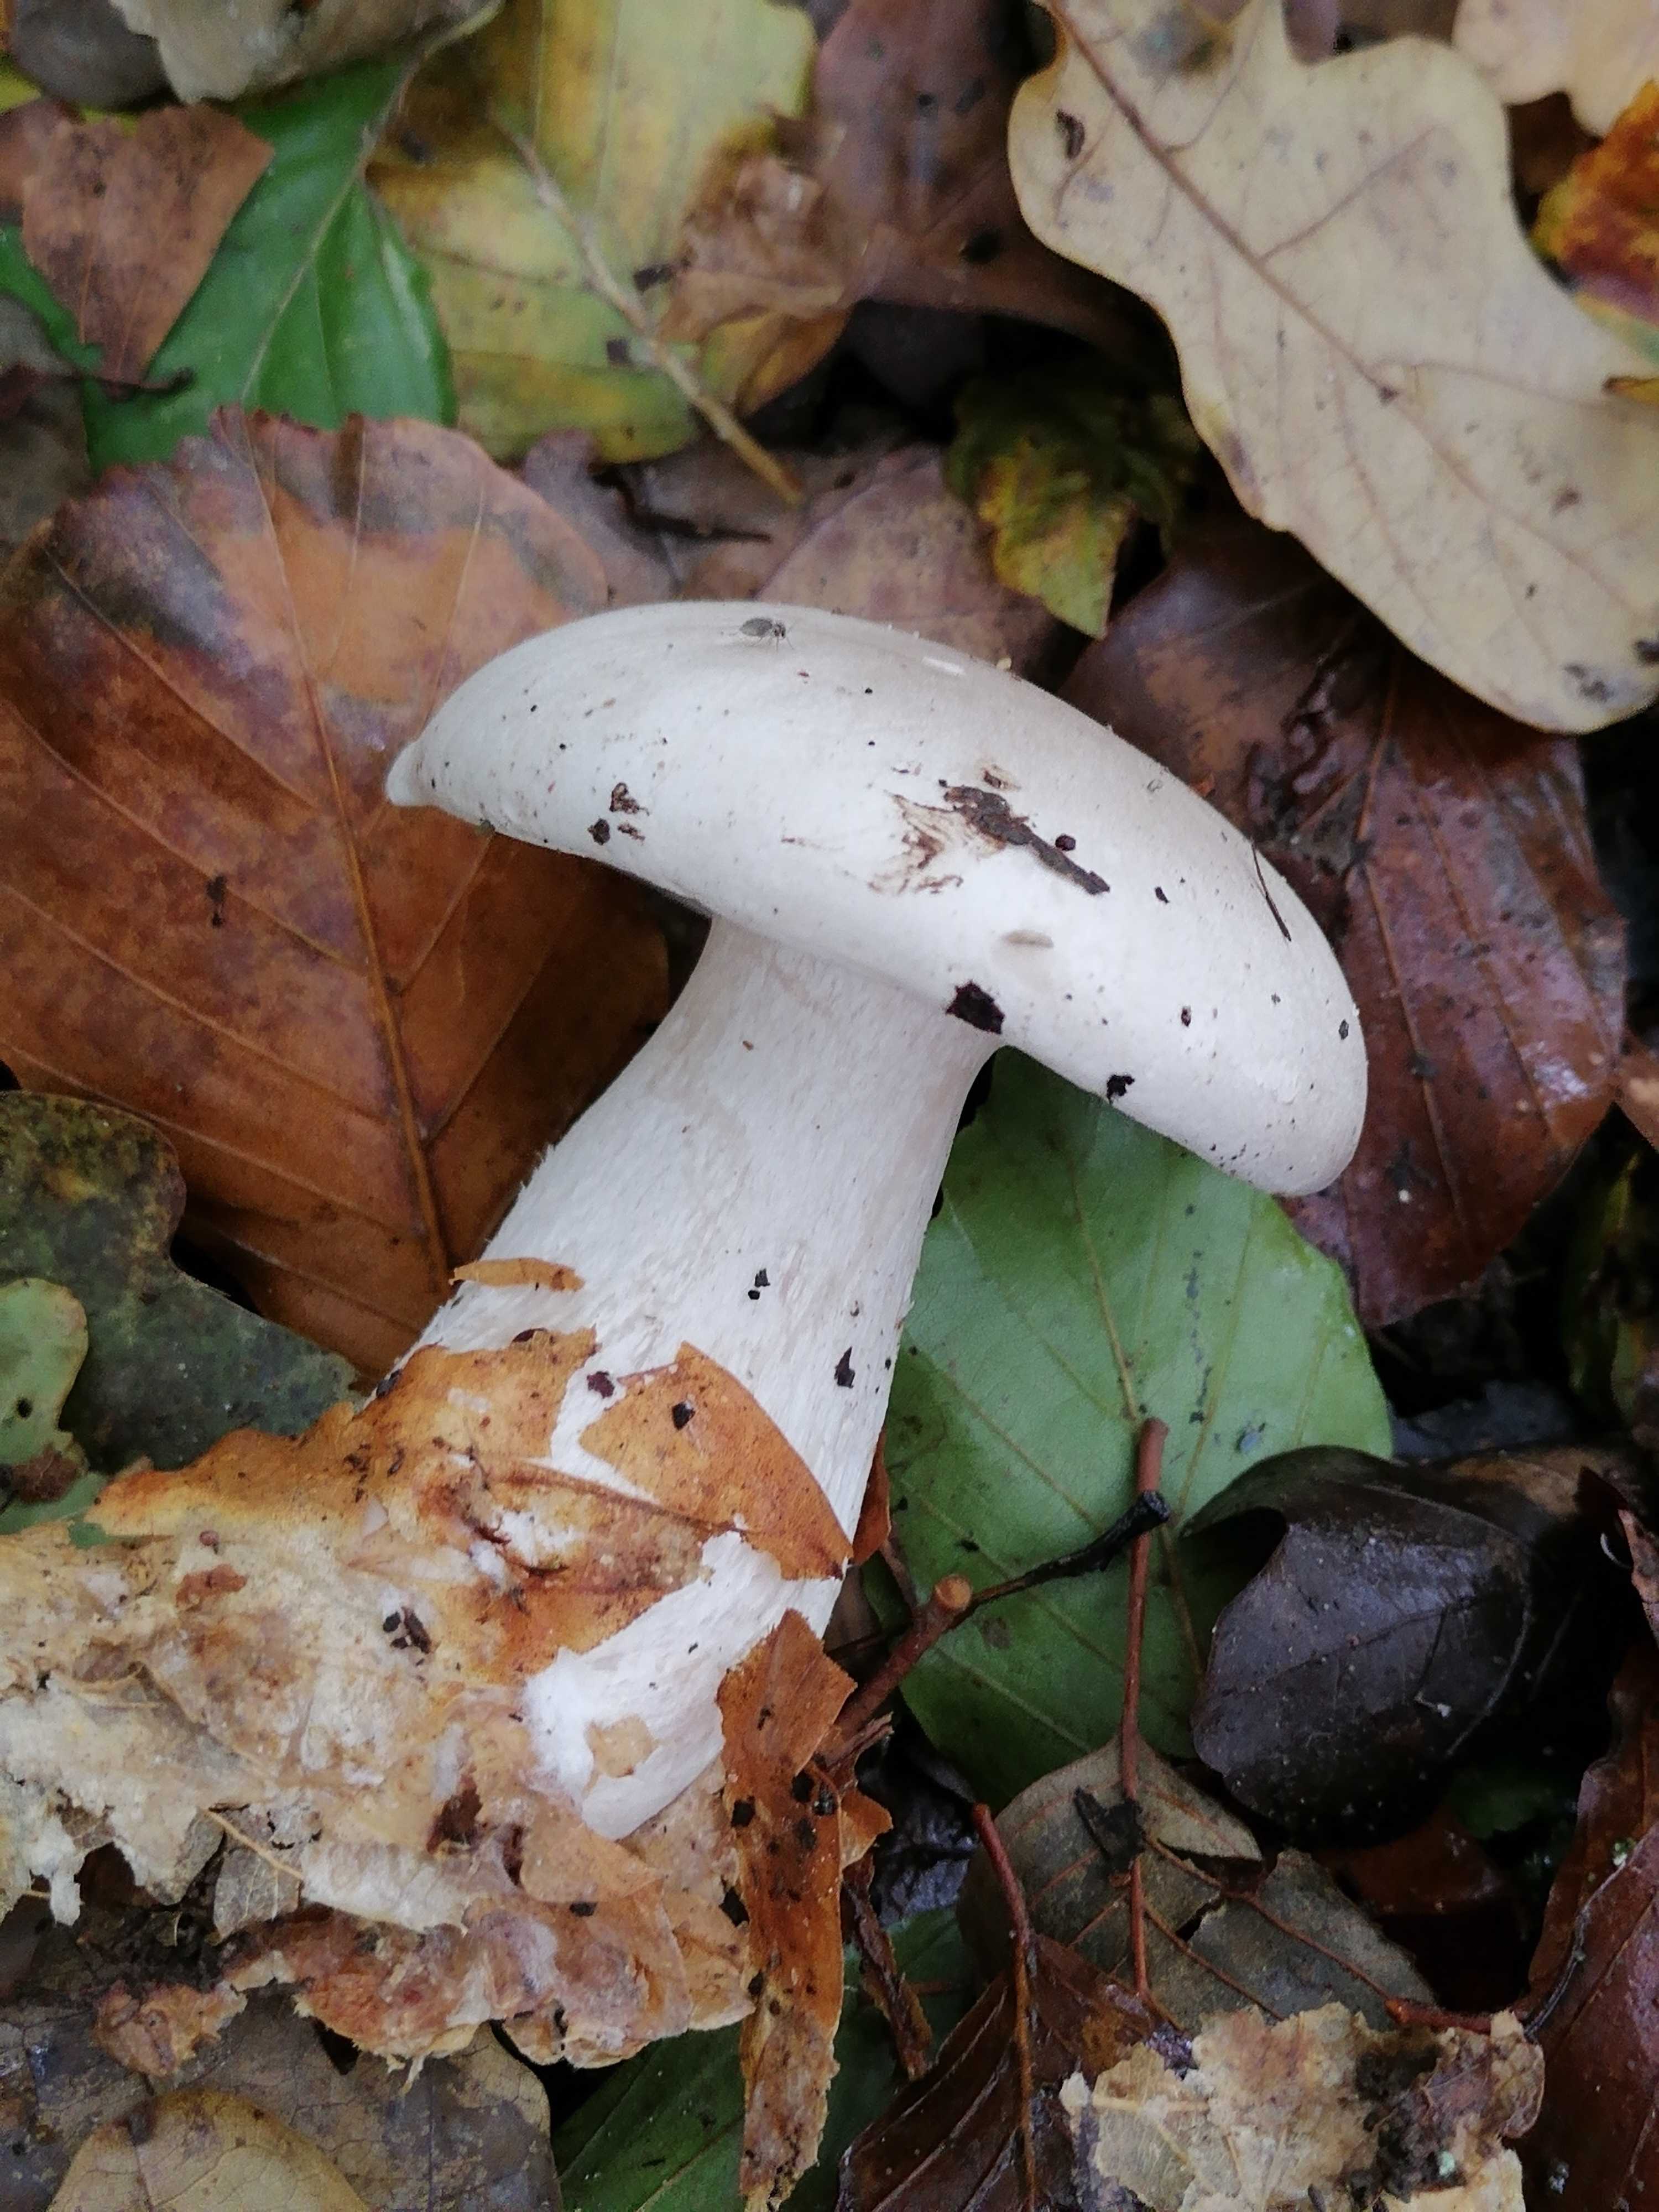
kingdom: Fungi
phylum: Basidiomycota
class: Agaricomycetes
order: Agaricales
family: Tricholomataceae
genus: Clitocybe
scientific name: Clitocybe nebularis
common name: Clouded agaric
